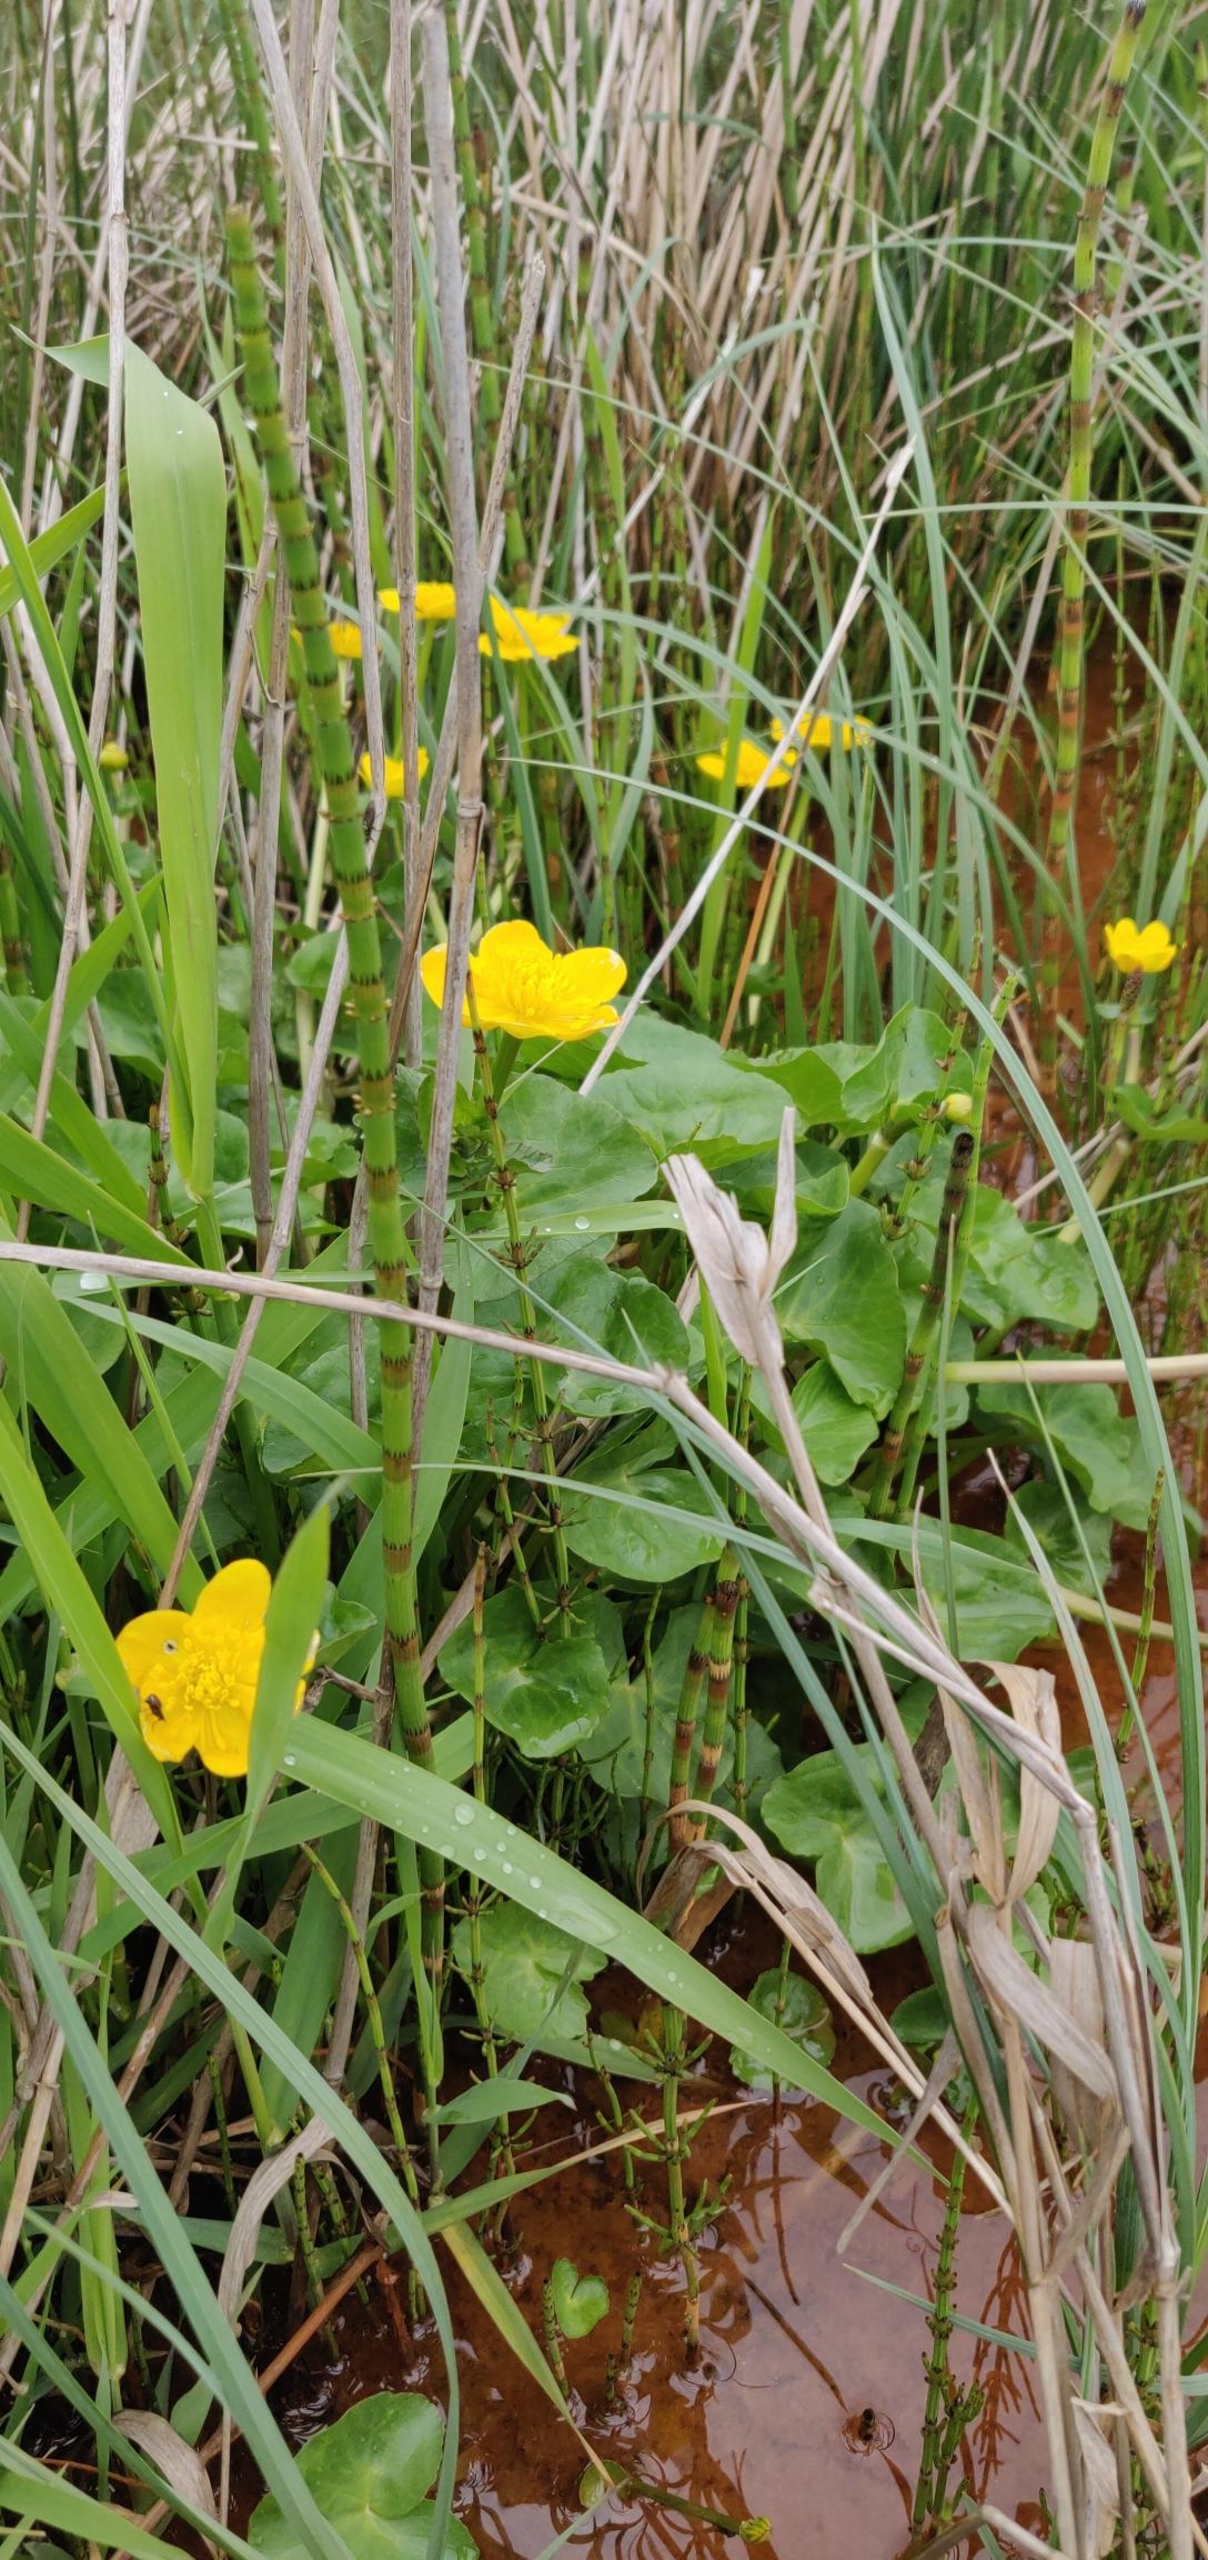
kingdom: Plantae
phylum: Tracheophyta
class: Magnoliopsida
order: Ranunculales
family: Ranunculaceae
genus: Caltha
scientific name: Caltha palustris
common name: Eng-kabbeleje
